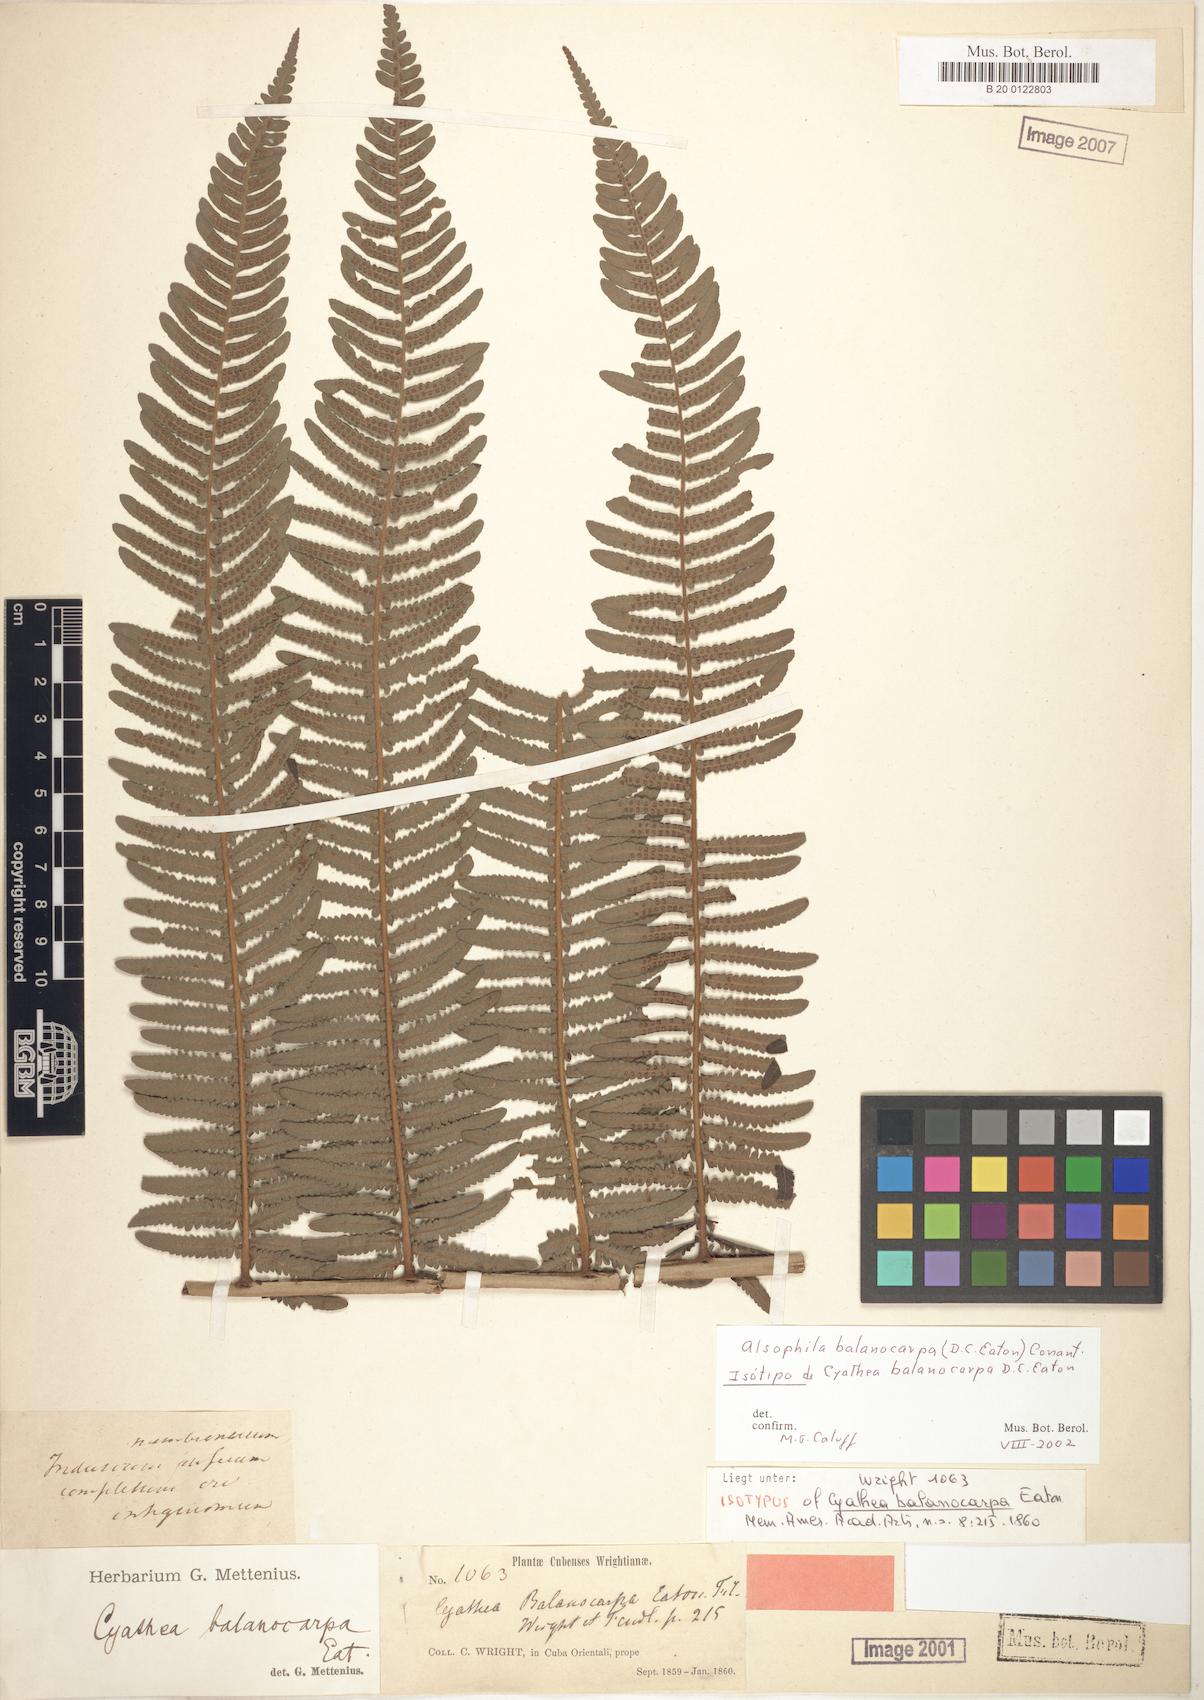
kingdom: Plantae
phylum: Tracheophyta
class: Polypodiopsida
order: Cyatheales
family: Cyatheaceae
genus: Alsophila
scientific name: Alsophila balanocarpa
